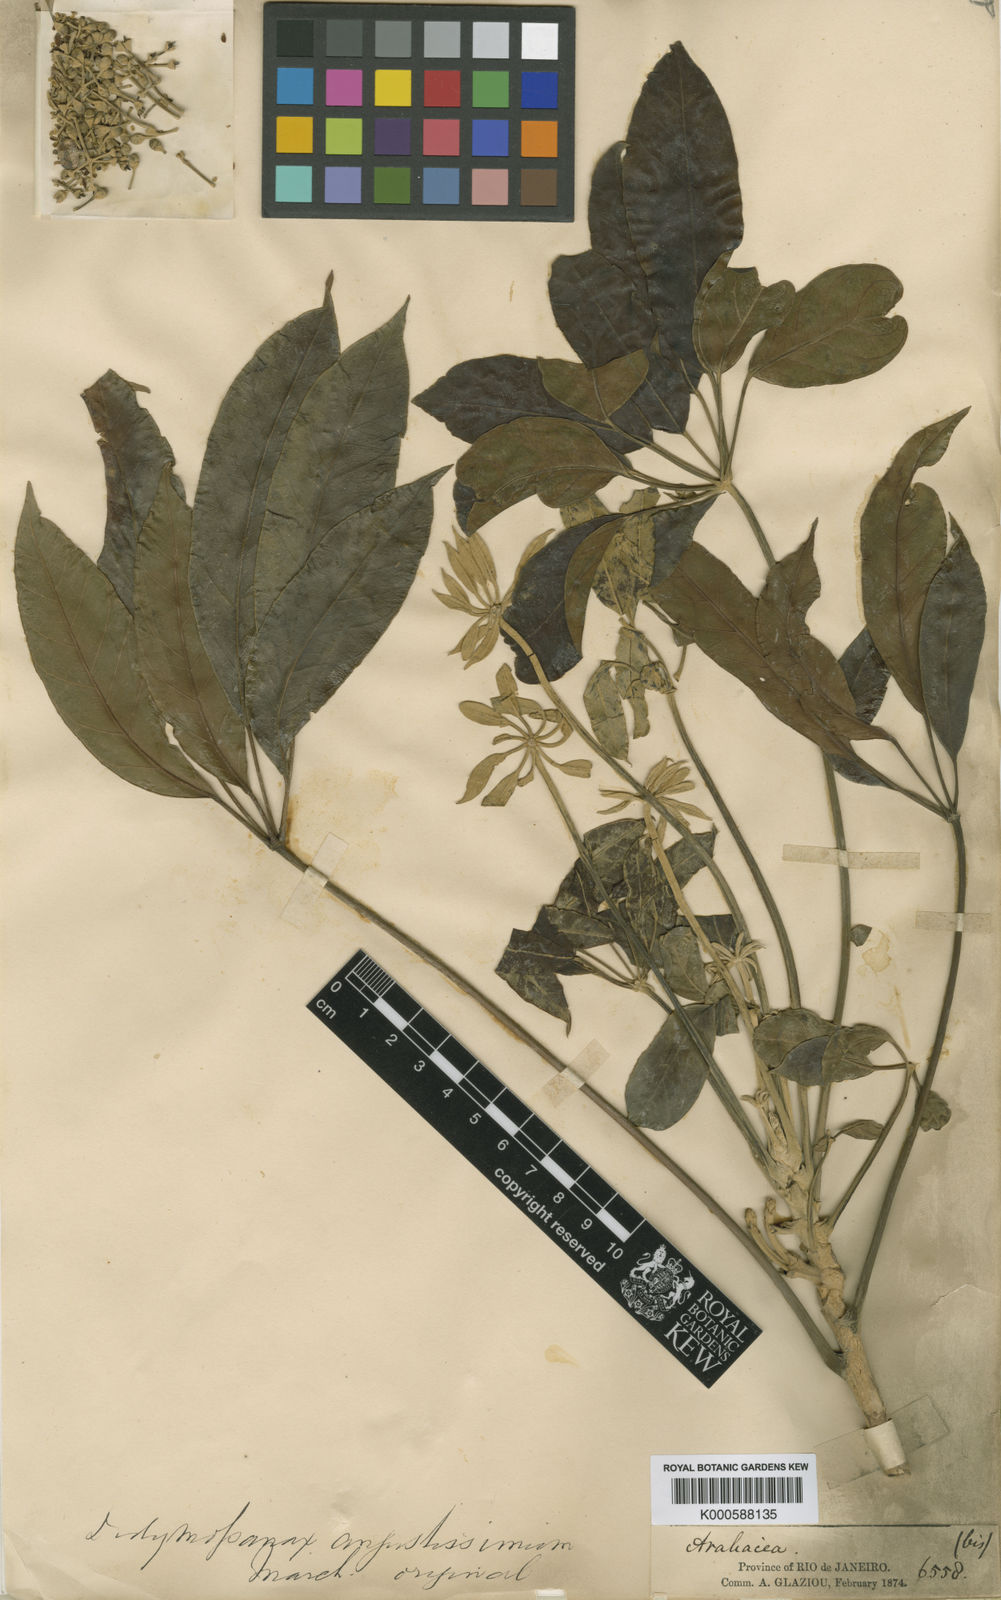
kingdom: Plantae
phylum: Tracheophyta
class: Magnoliopsida
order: Apiales
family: Araliaceae
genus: Didymopanax
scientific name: Didymopanax angustissimus
